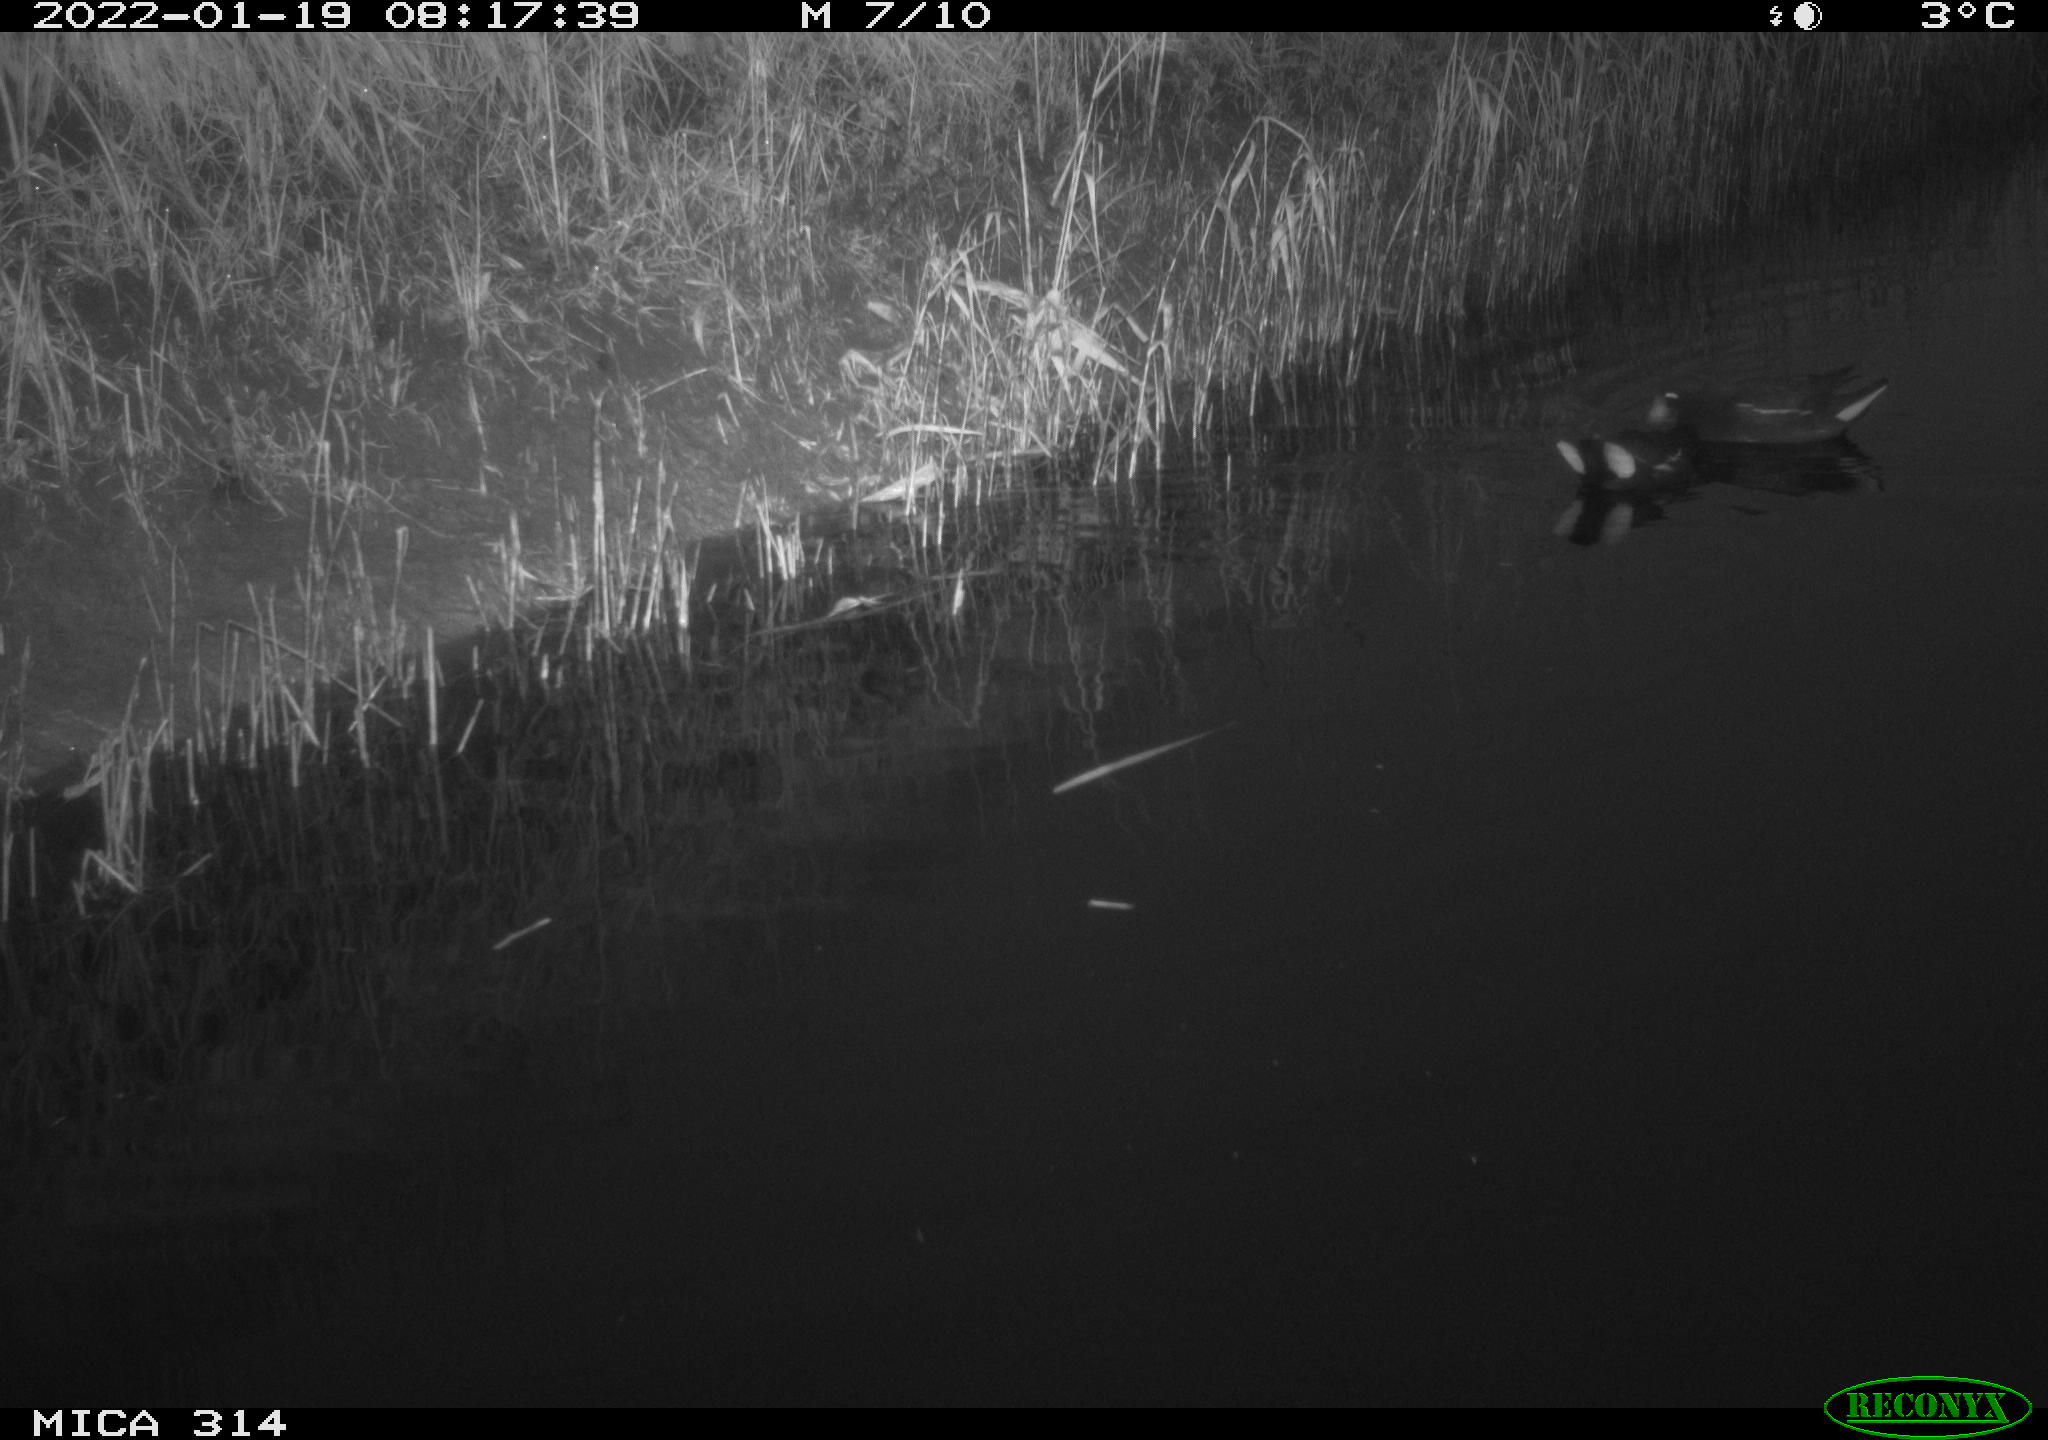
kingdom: Animalia
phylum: Chordata
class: Aves
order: Gruiformes
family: Rallidae
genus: Gallinula
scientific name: Gallinula chloropus
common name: Common moorhen
